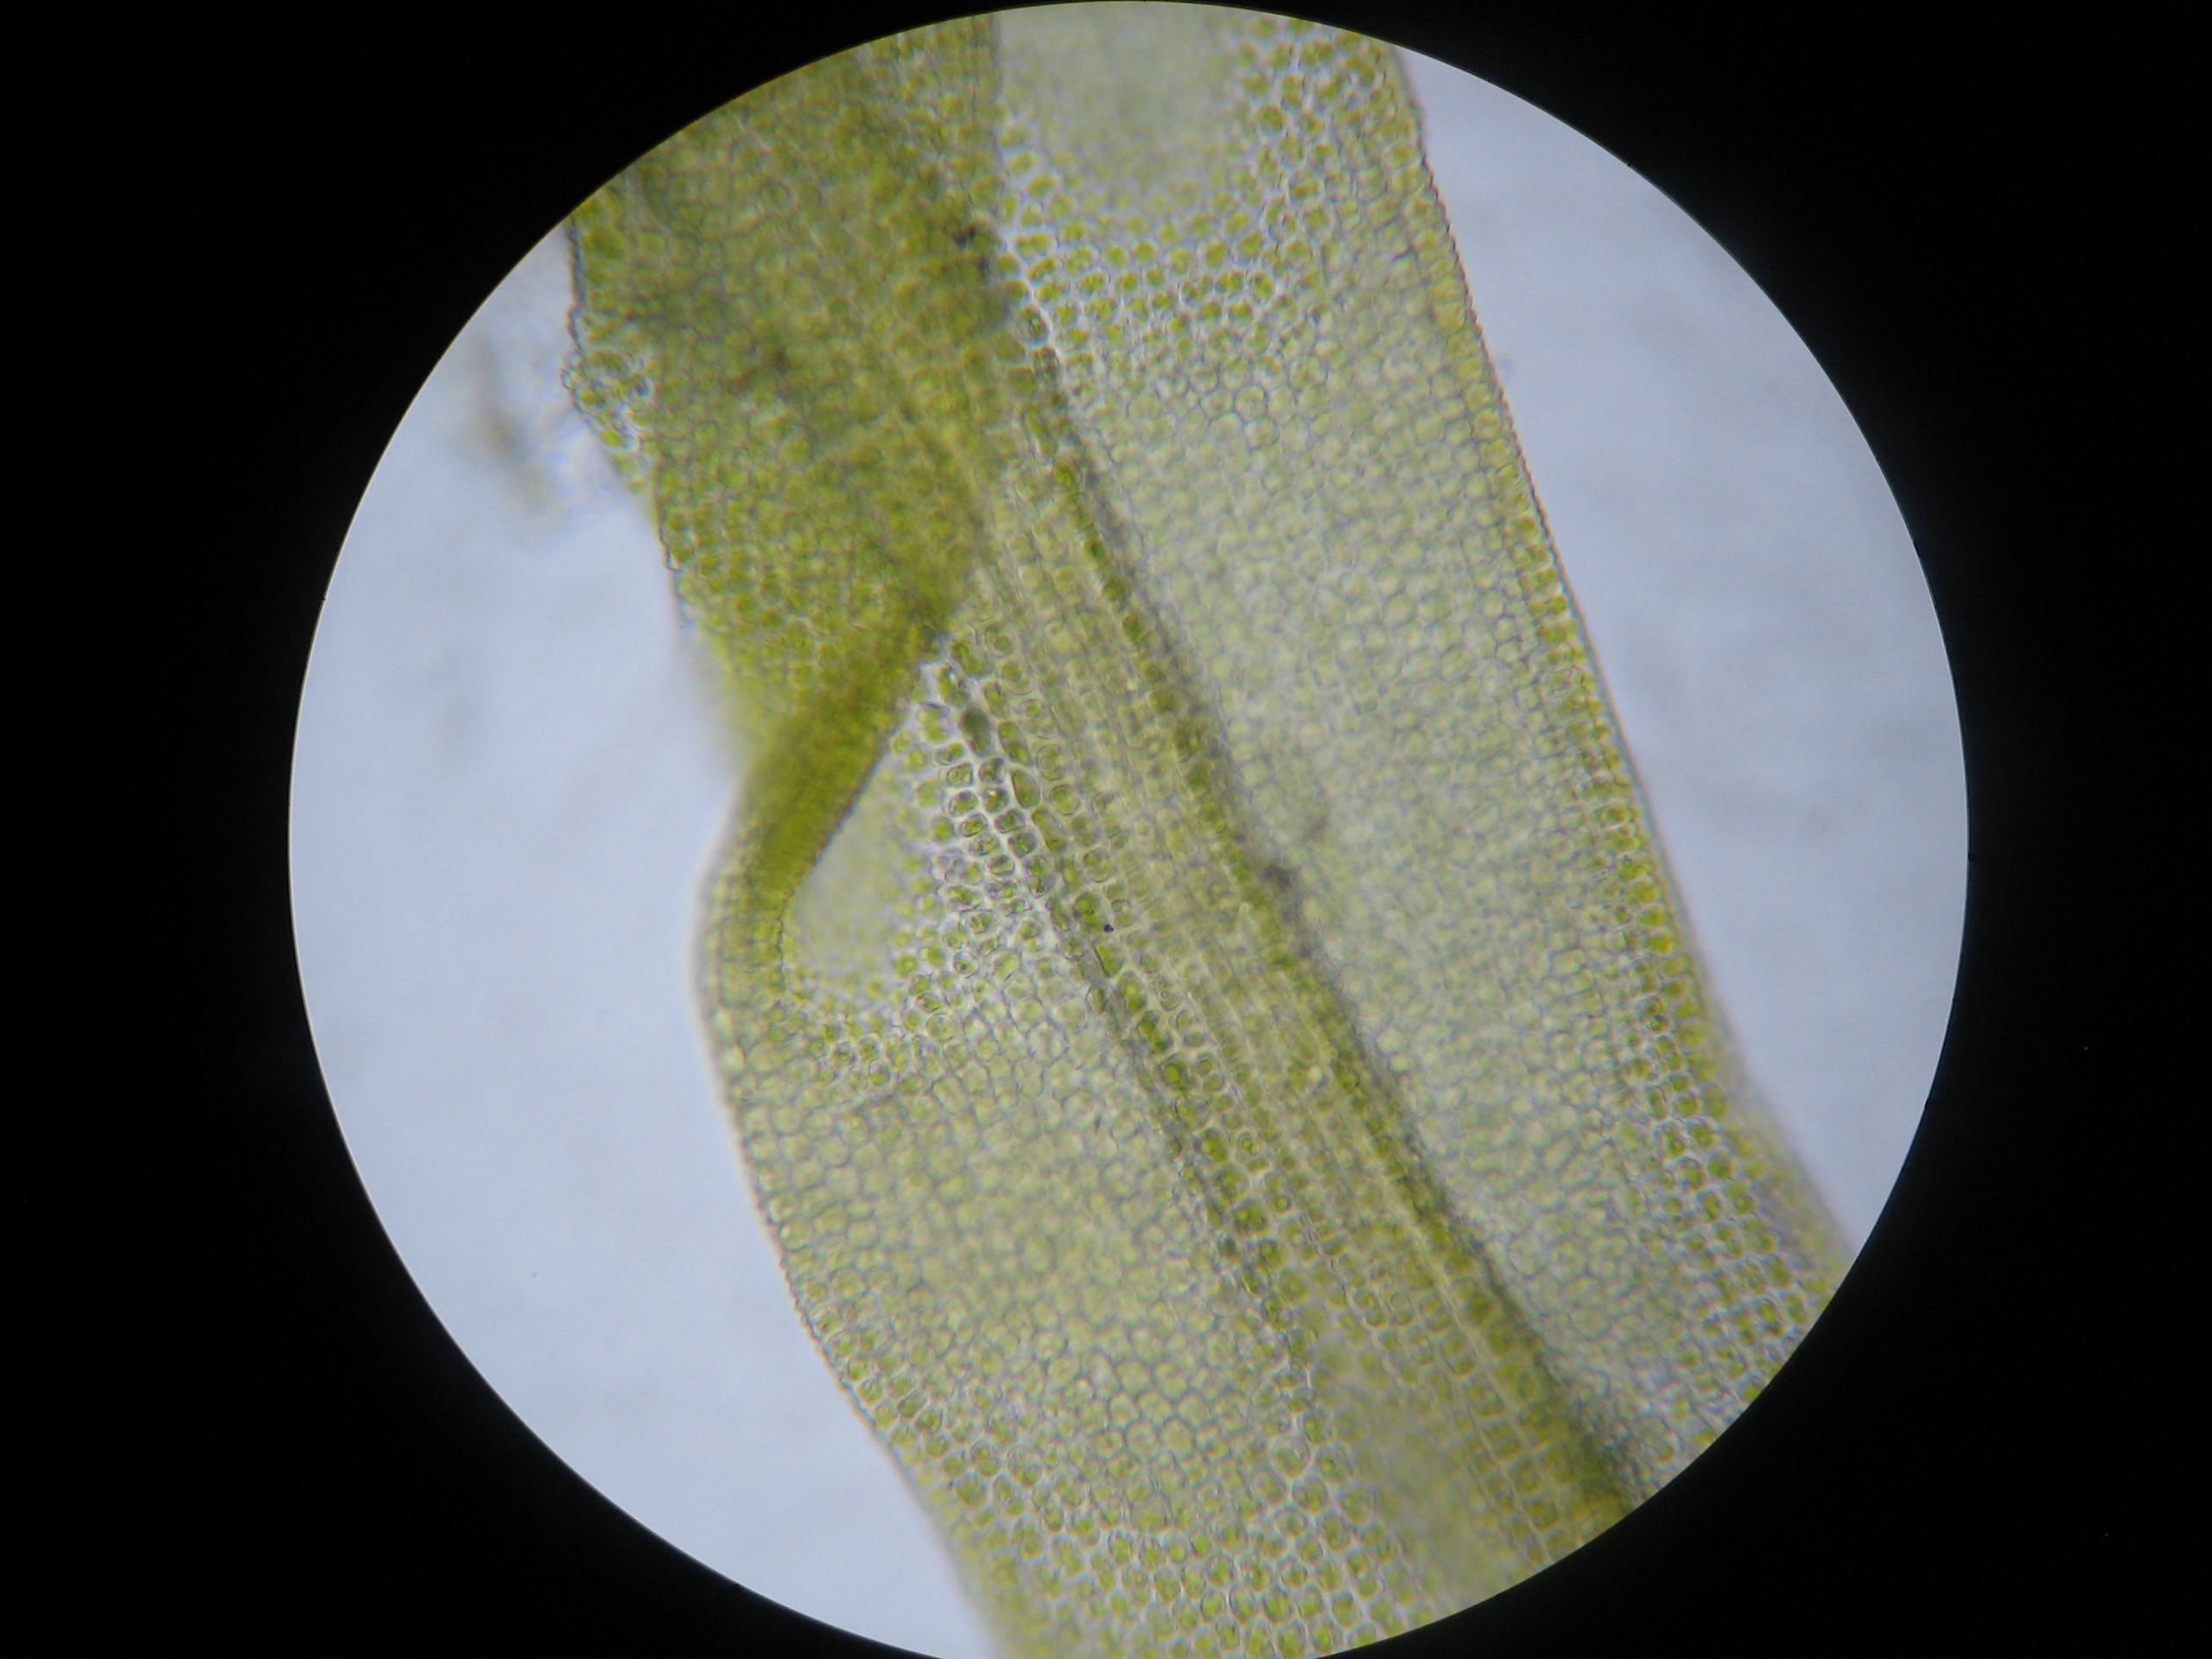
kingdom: Plantae
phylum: Bryophyta
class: Bryopsida
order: Pottiales
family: Pottiaceae
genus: Vinealobryum
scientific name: Vinealobryum insulanum
